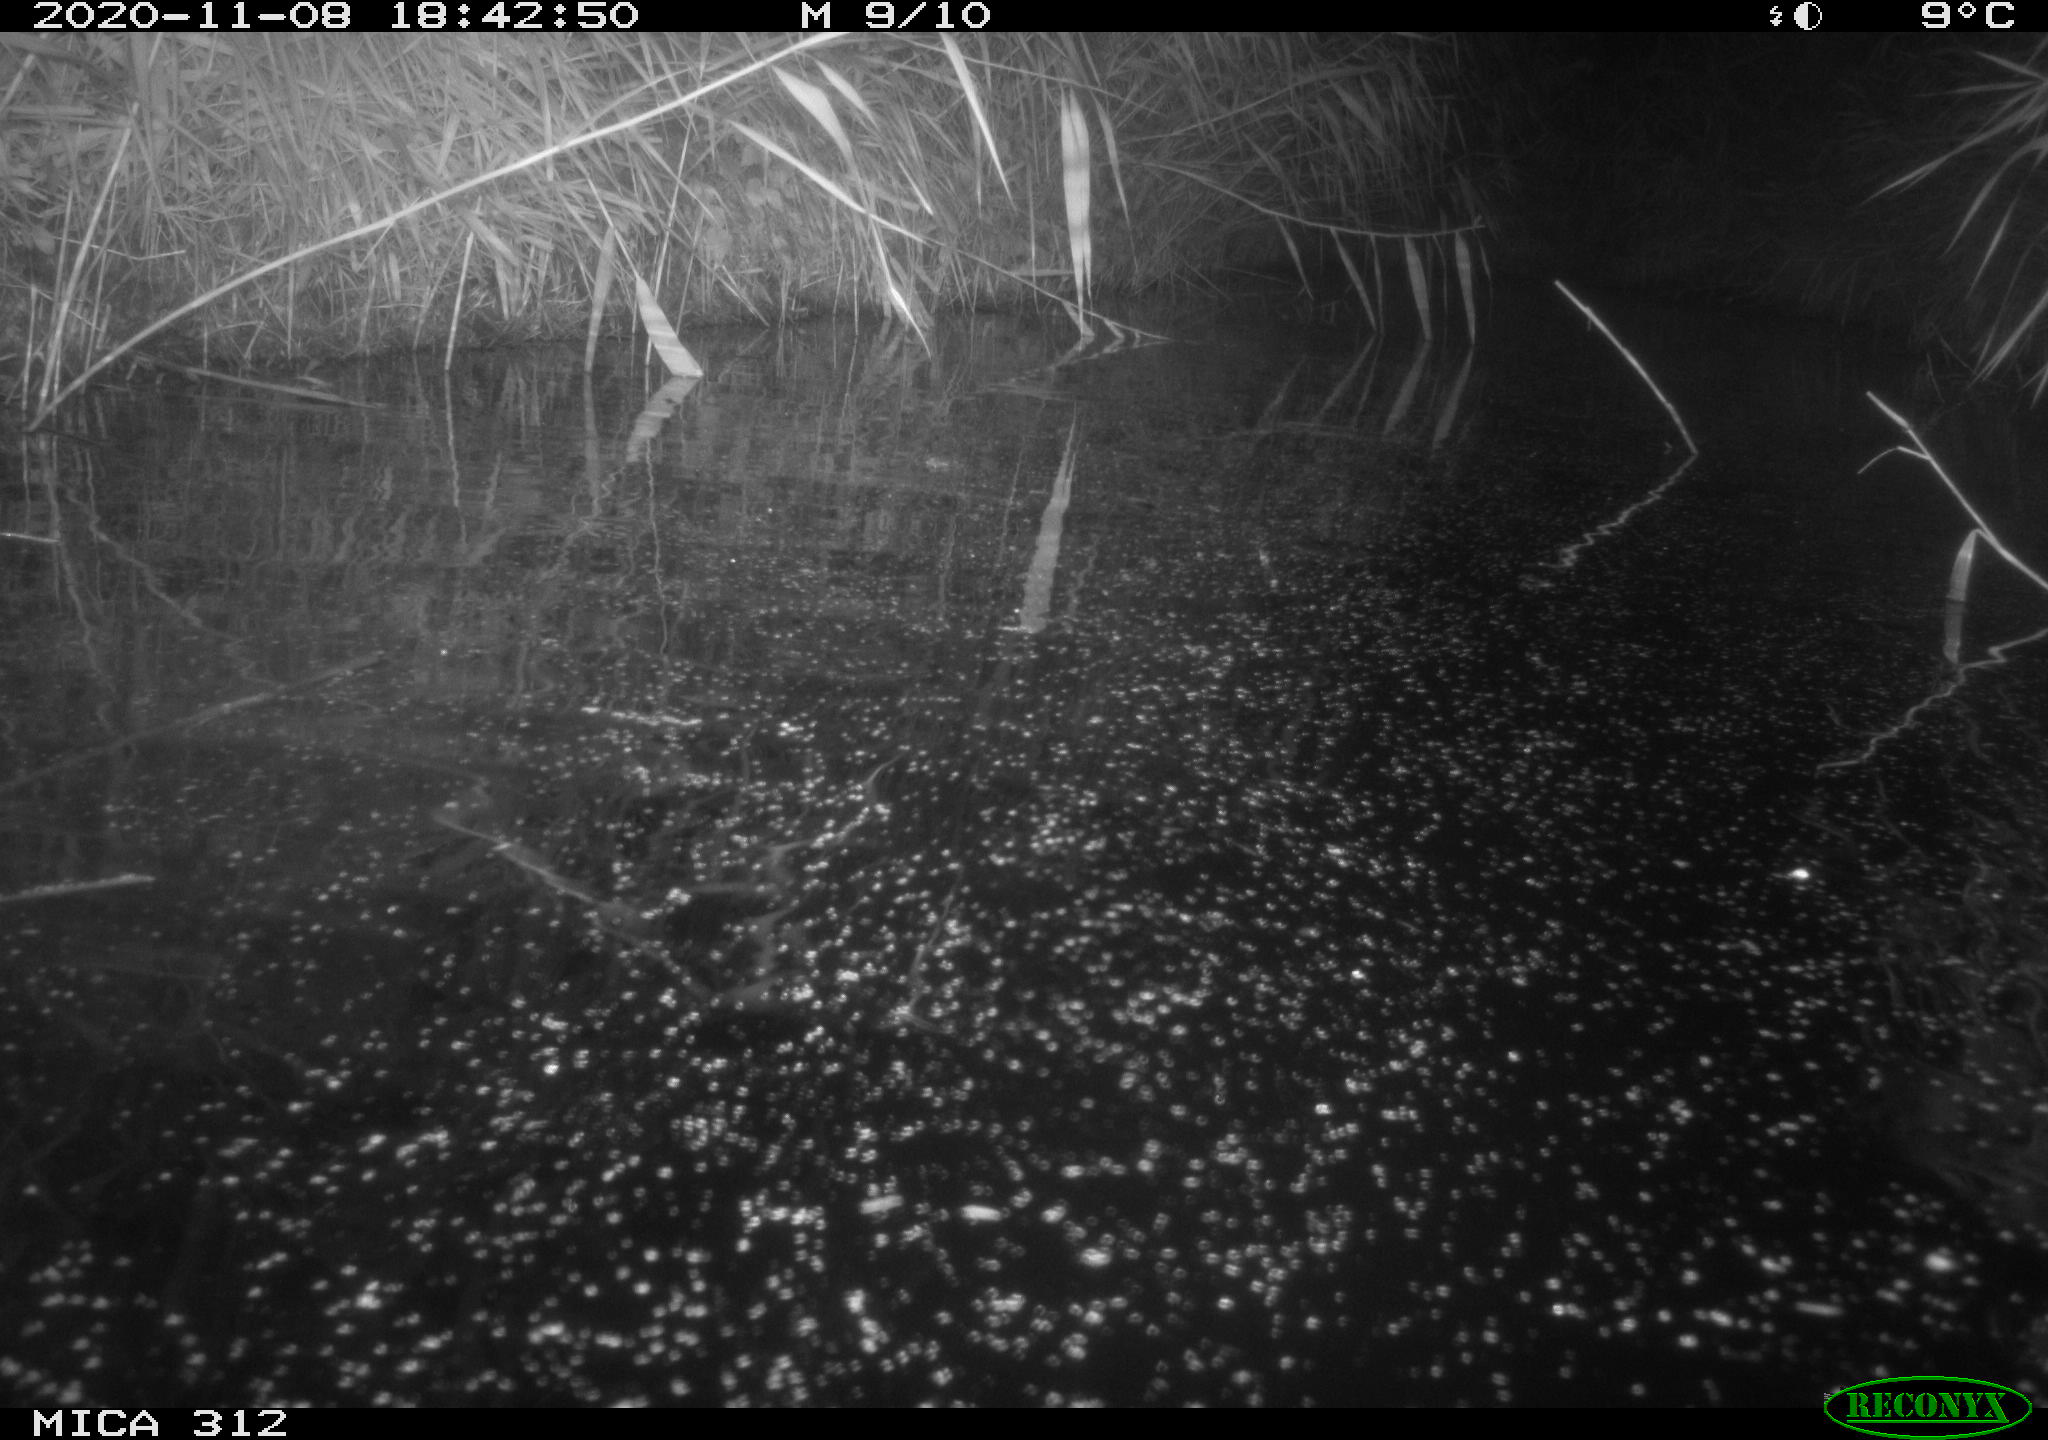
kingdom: Animalia
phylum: Chordata
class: Mammalia
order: Rodentia
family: Cricetidae
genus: Ondatra
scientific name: Ondatra zibethicus
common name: Muskrat
